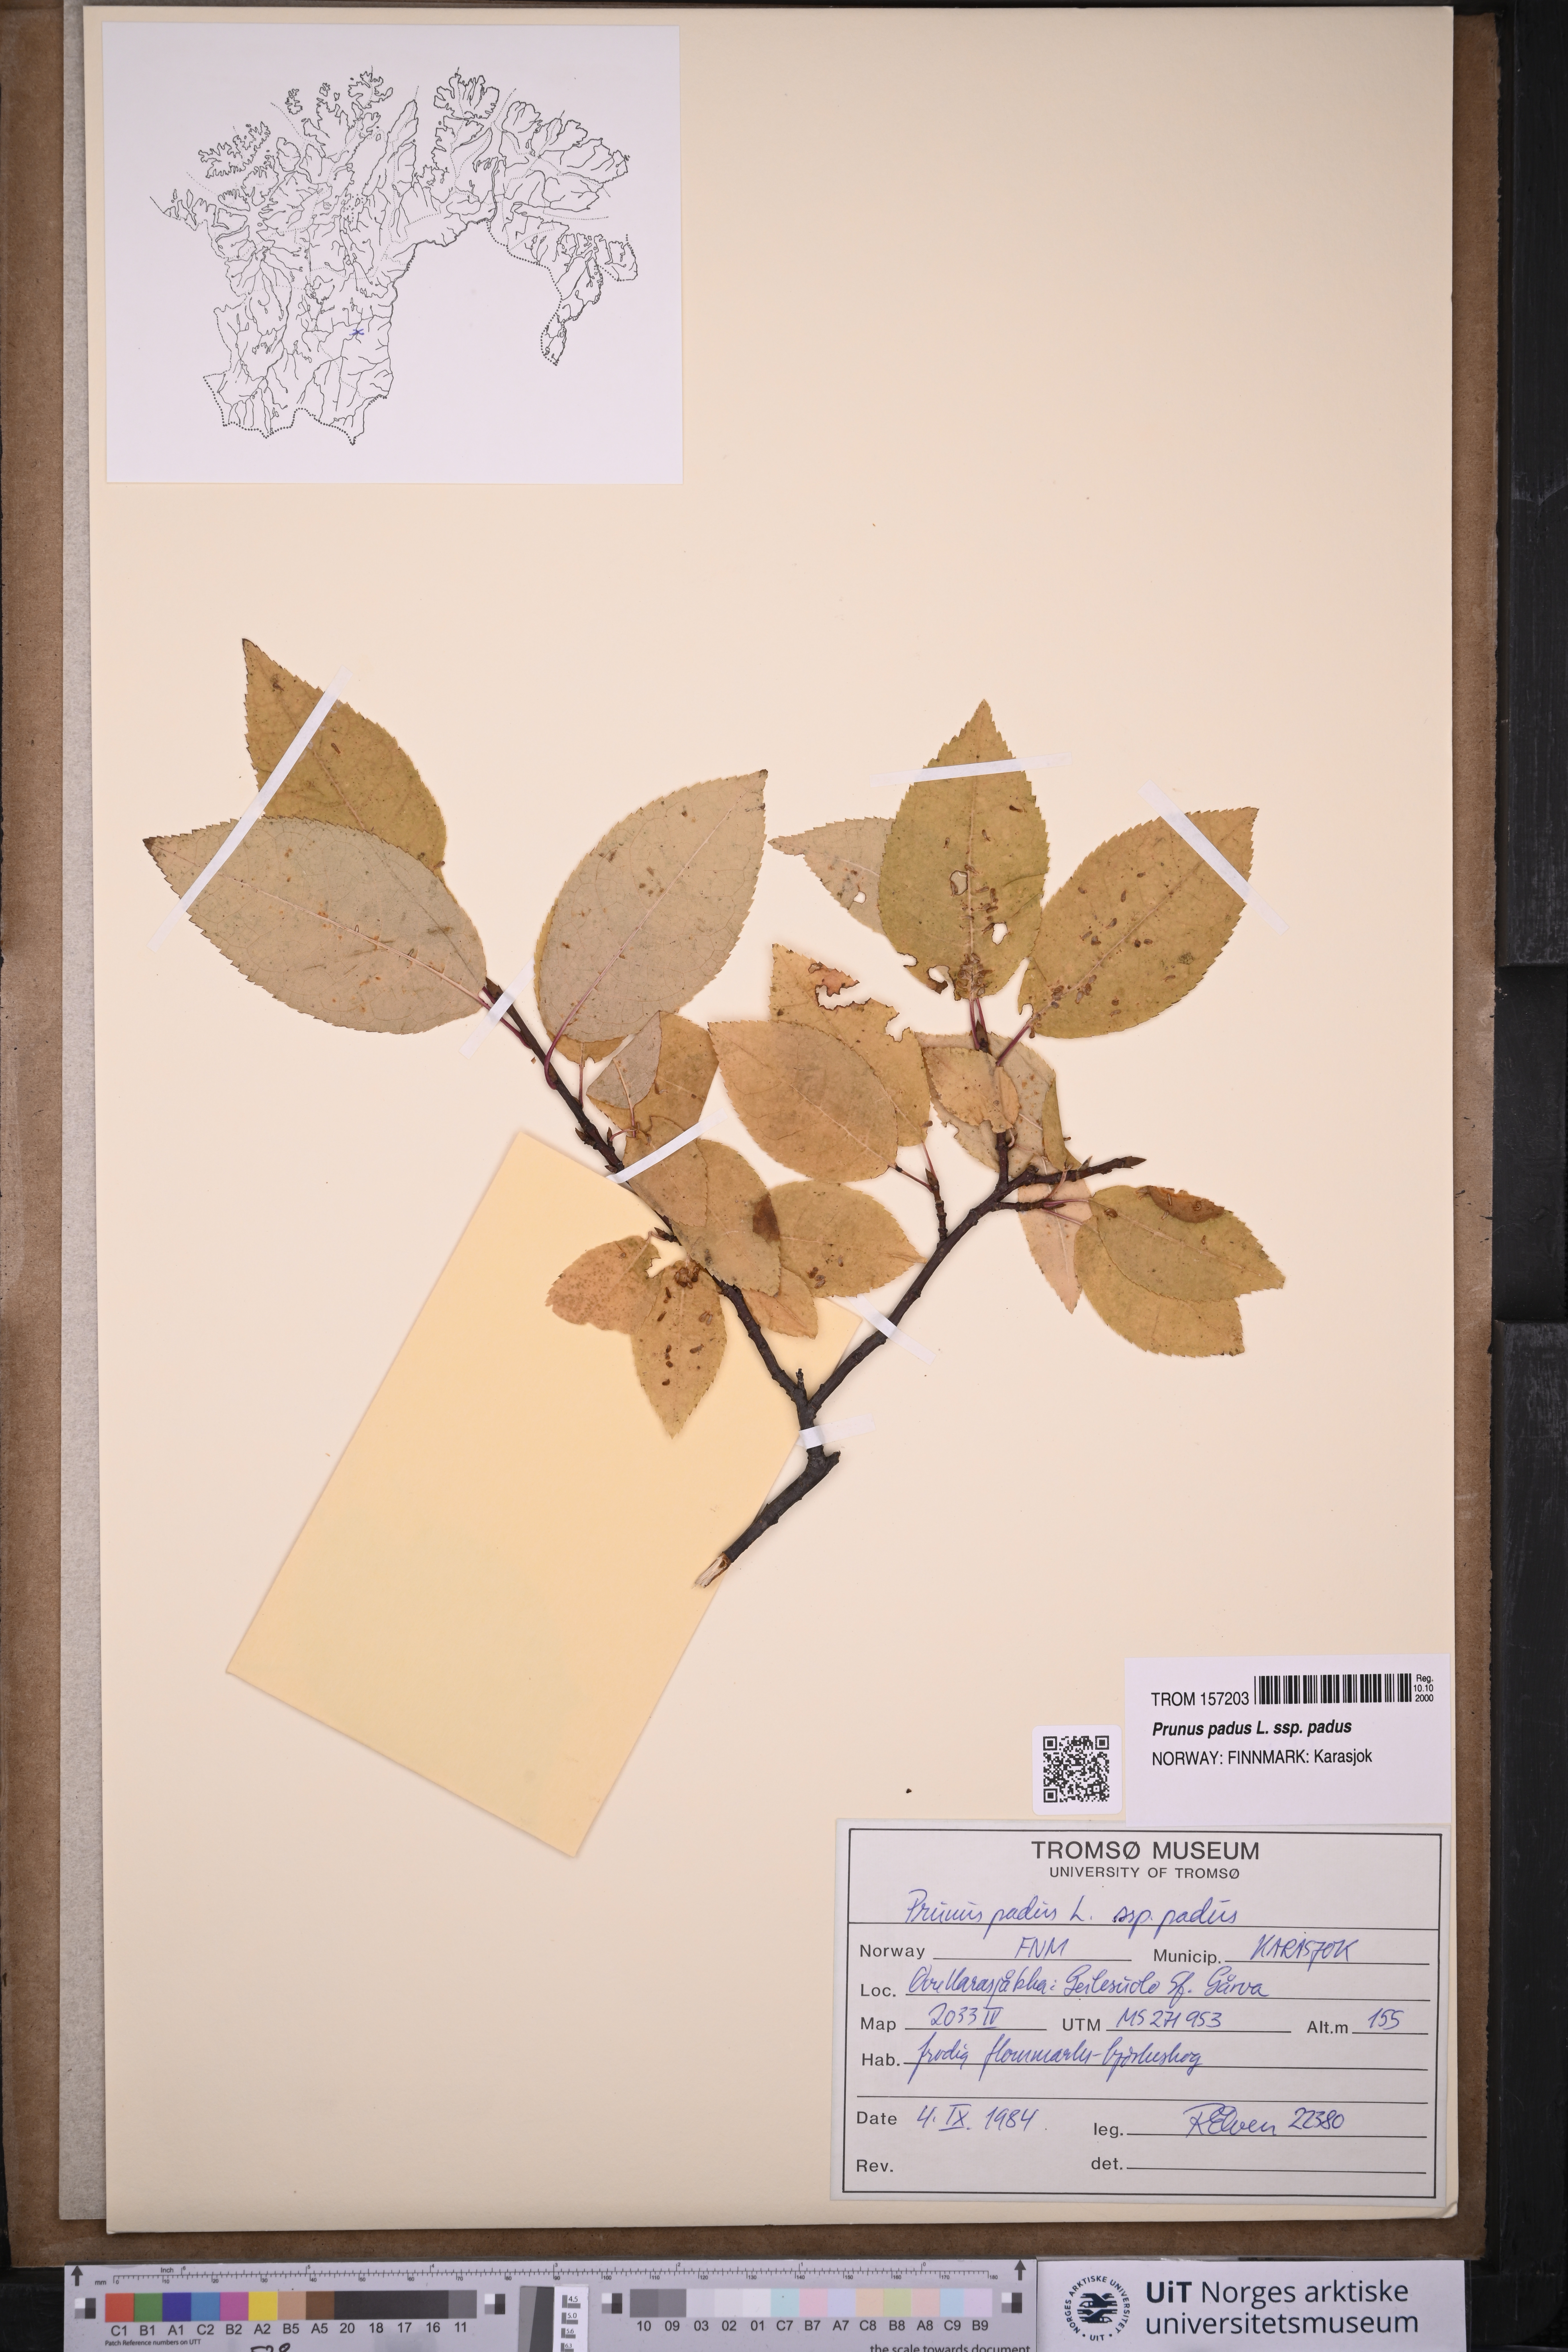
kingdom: Plantae
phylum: Tracheophyta
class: Magnoliopsida
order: Rosales
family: Rosaceae
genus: Prunus
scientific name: Prunus padus
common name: Bird cherry
